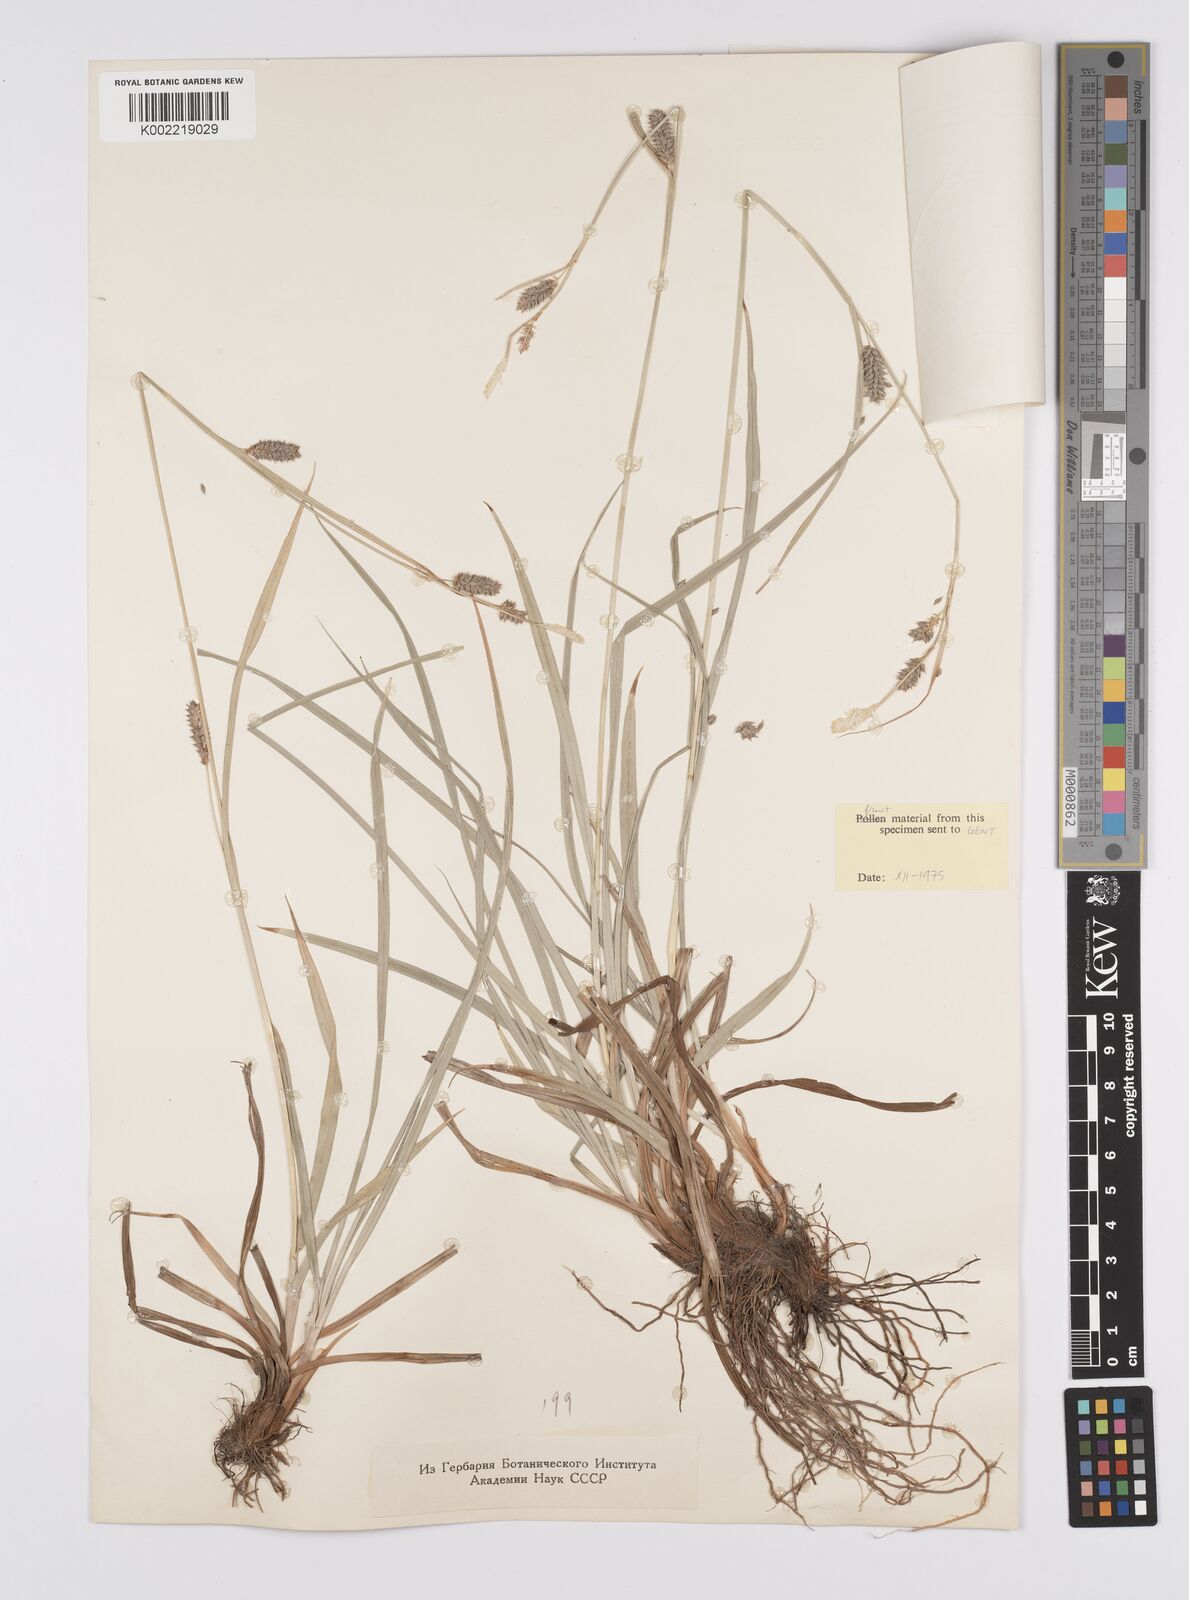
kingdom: Plantae
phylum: Tracheophyta
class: Liliopsida
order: Poales
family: Cyperaceae
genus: Carex
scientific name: Carex diluta
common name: Sedge
